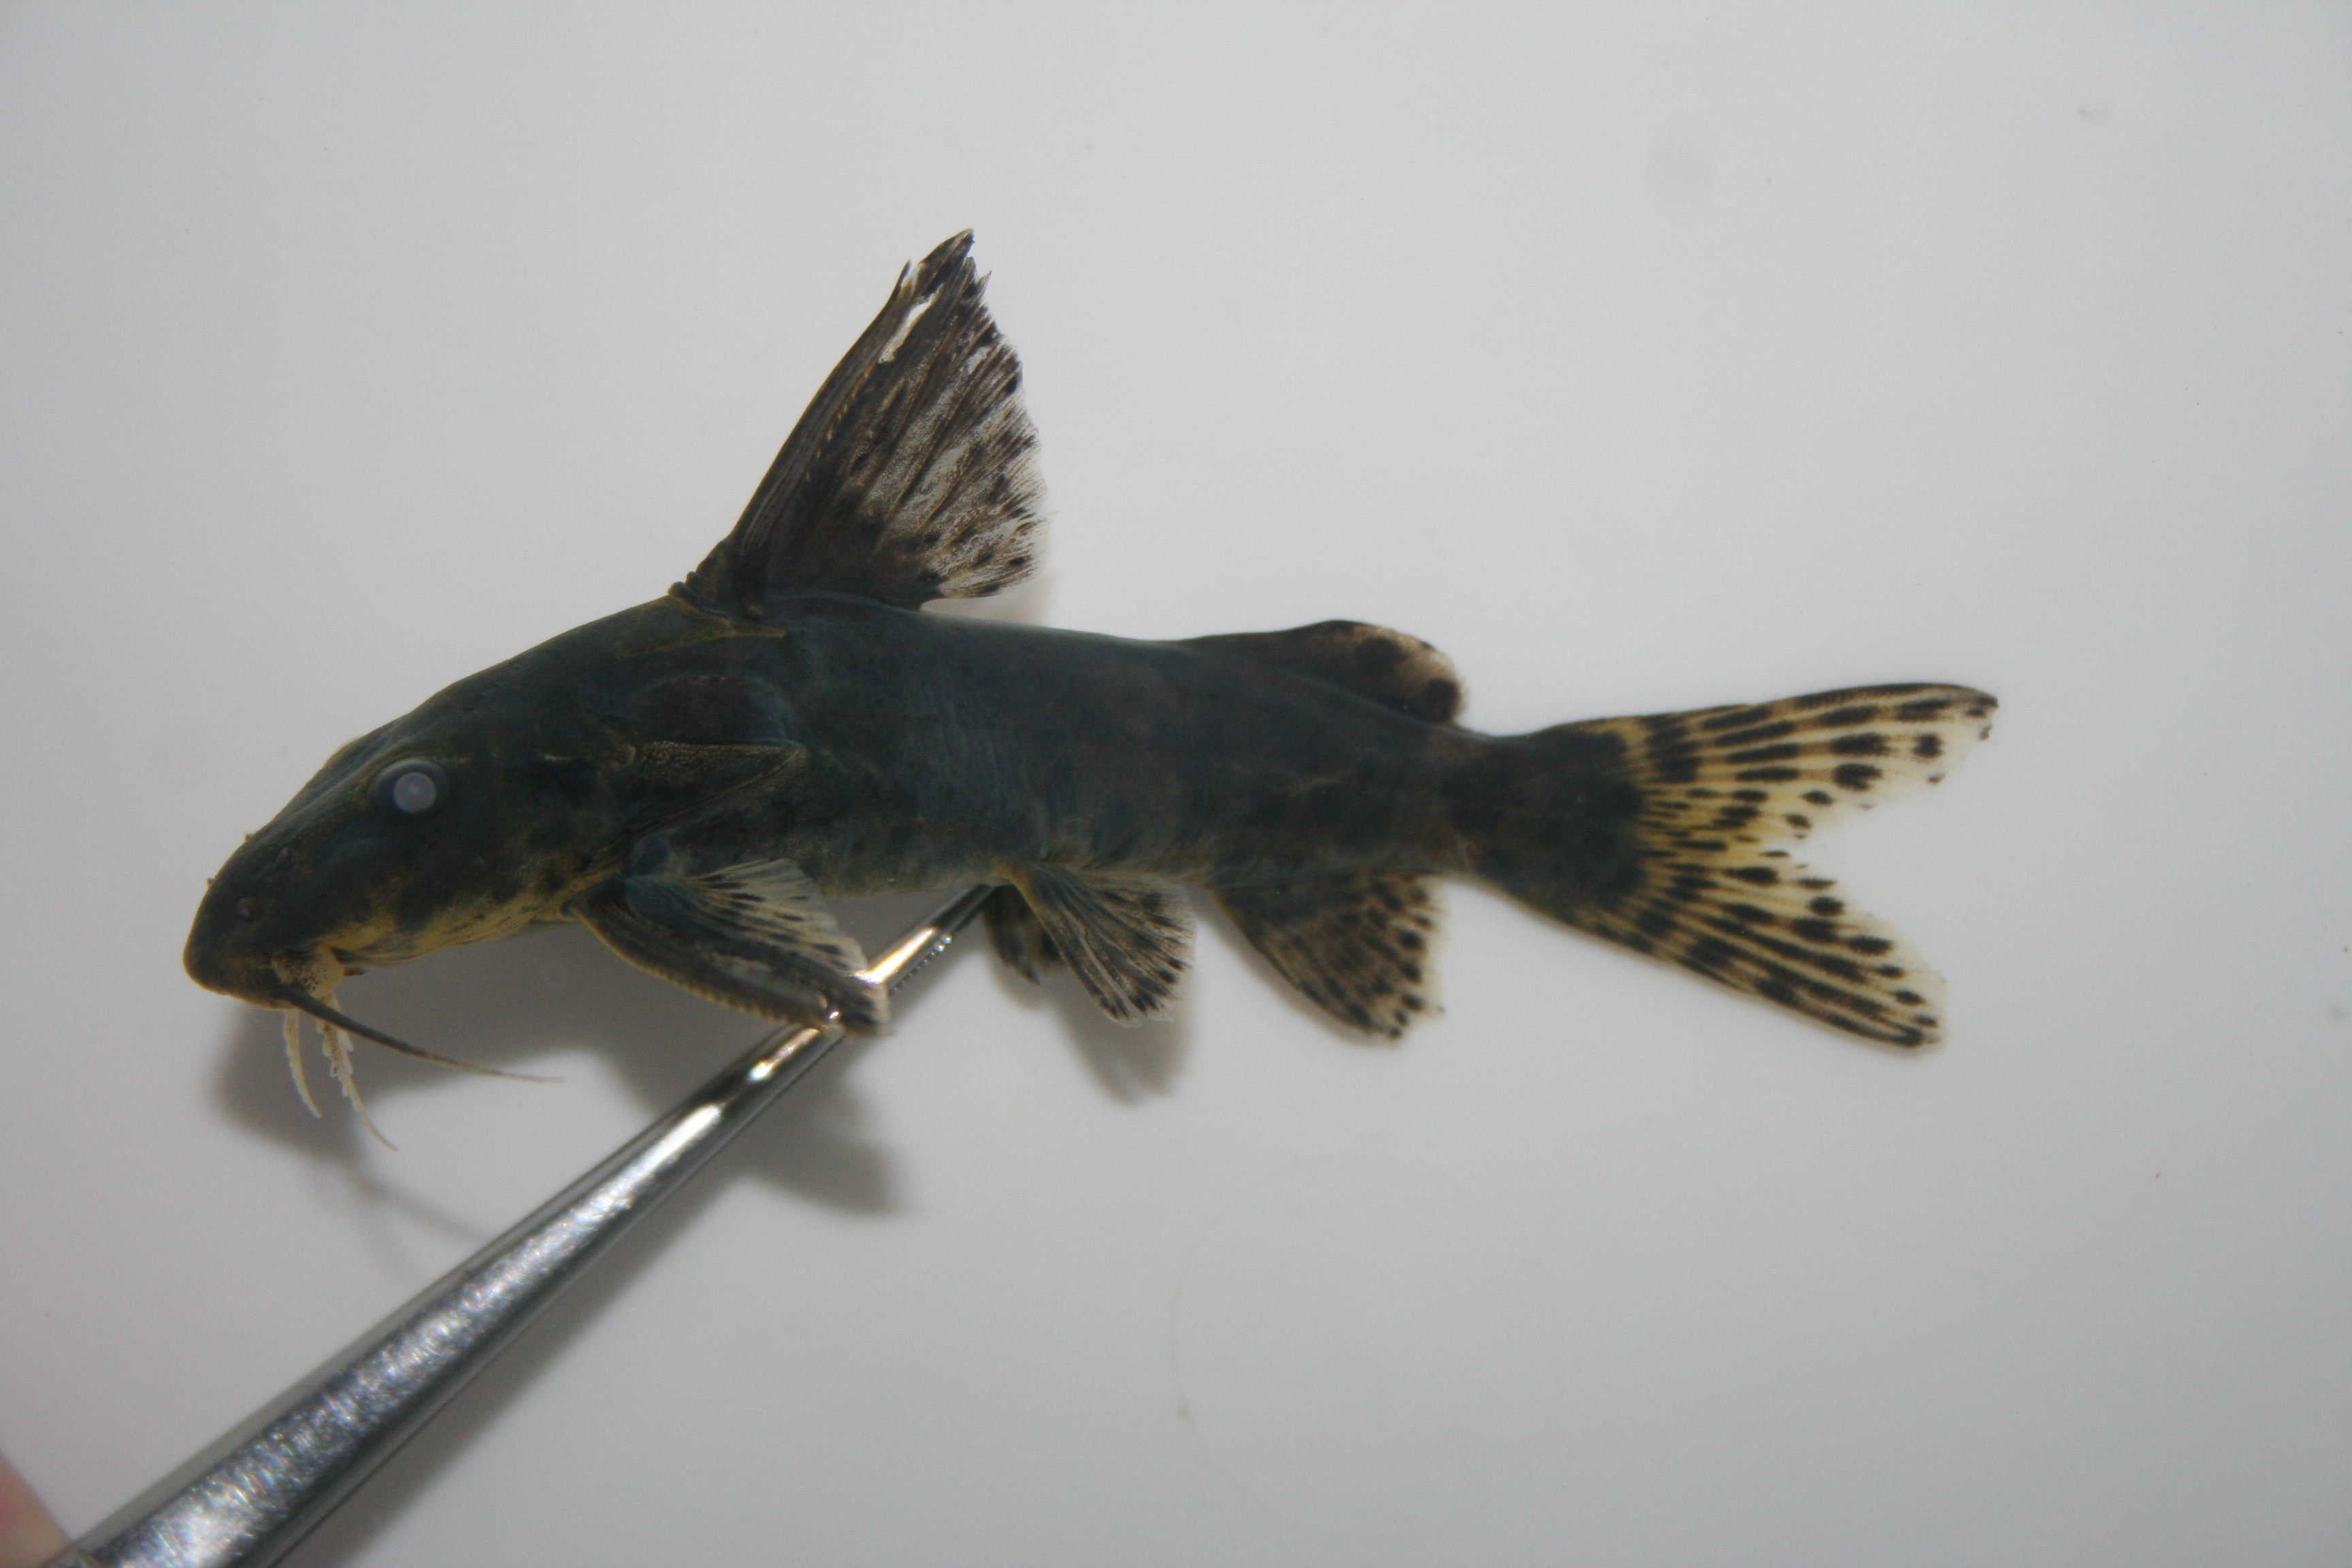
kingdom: Animalia
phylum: Chordata
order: Siluriformes
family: Mochokidae
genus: Synodontis
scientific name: Synodontis
